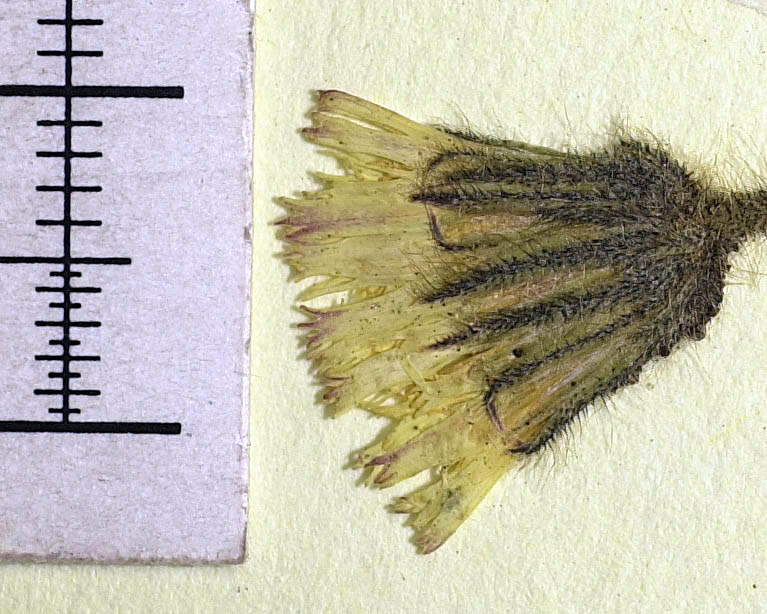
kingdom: Plantae
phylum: Tracheophyta
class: Magnoliopsida
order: Asterales
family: Asteraceae
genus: Pilosella
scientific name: Pilosella pawlowskiella
